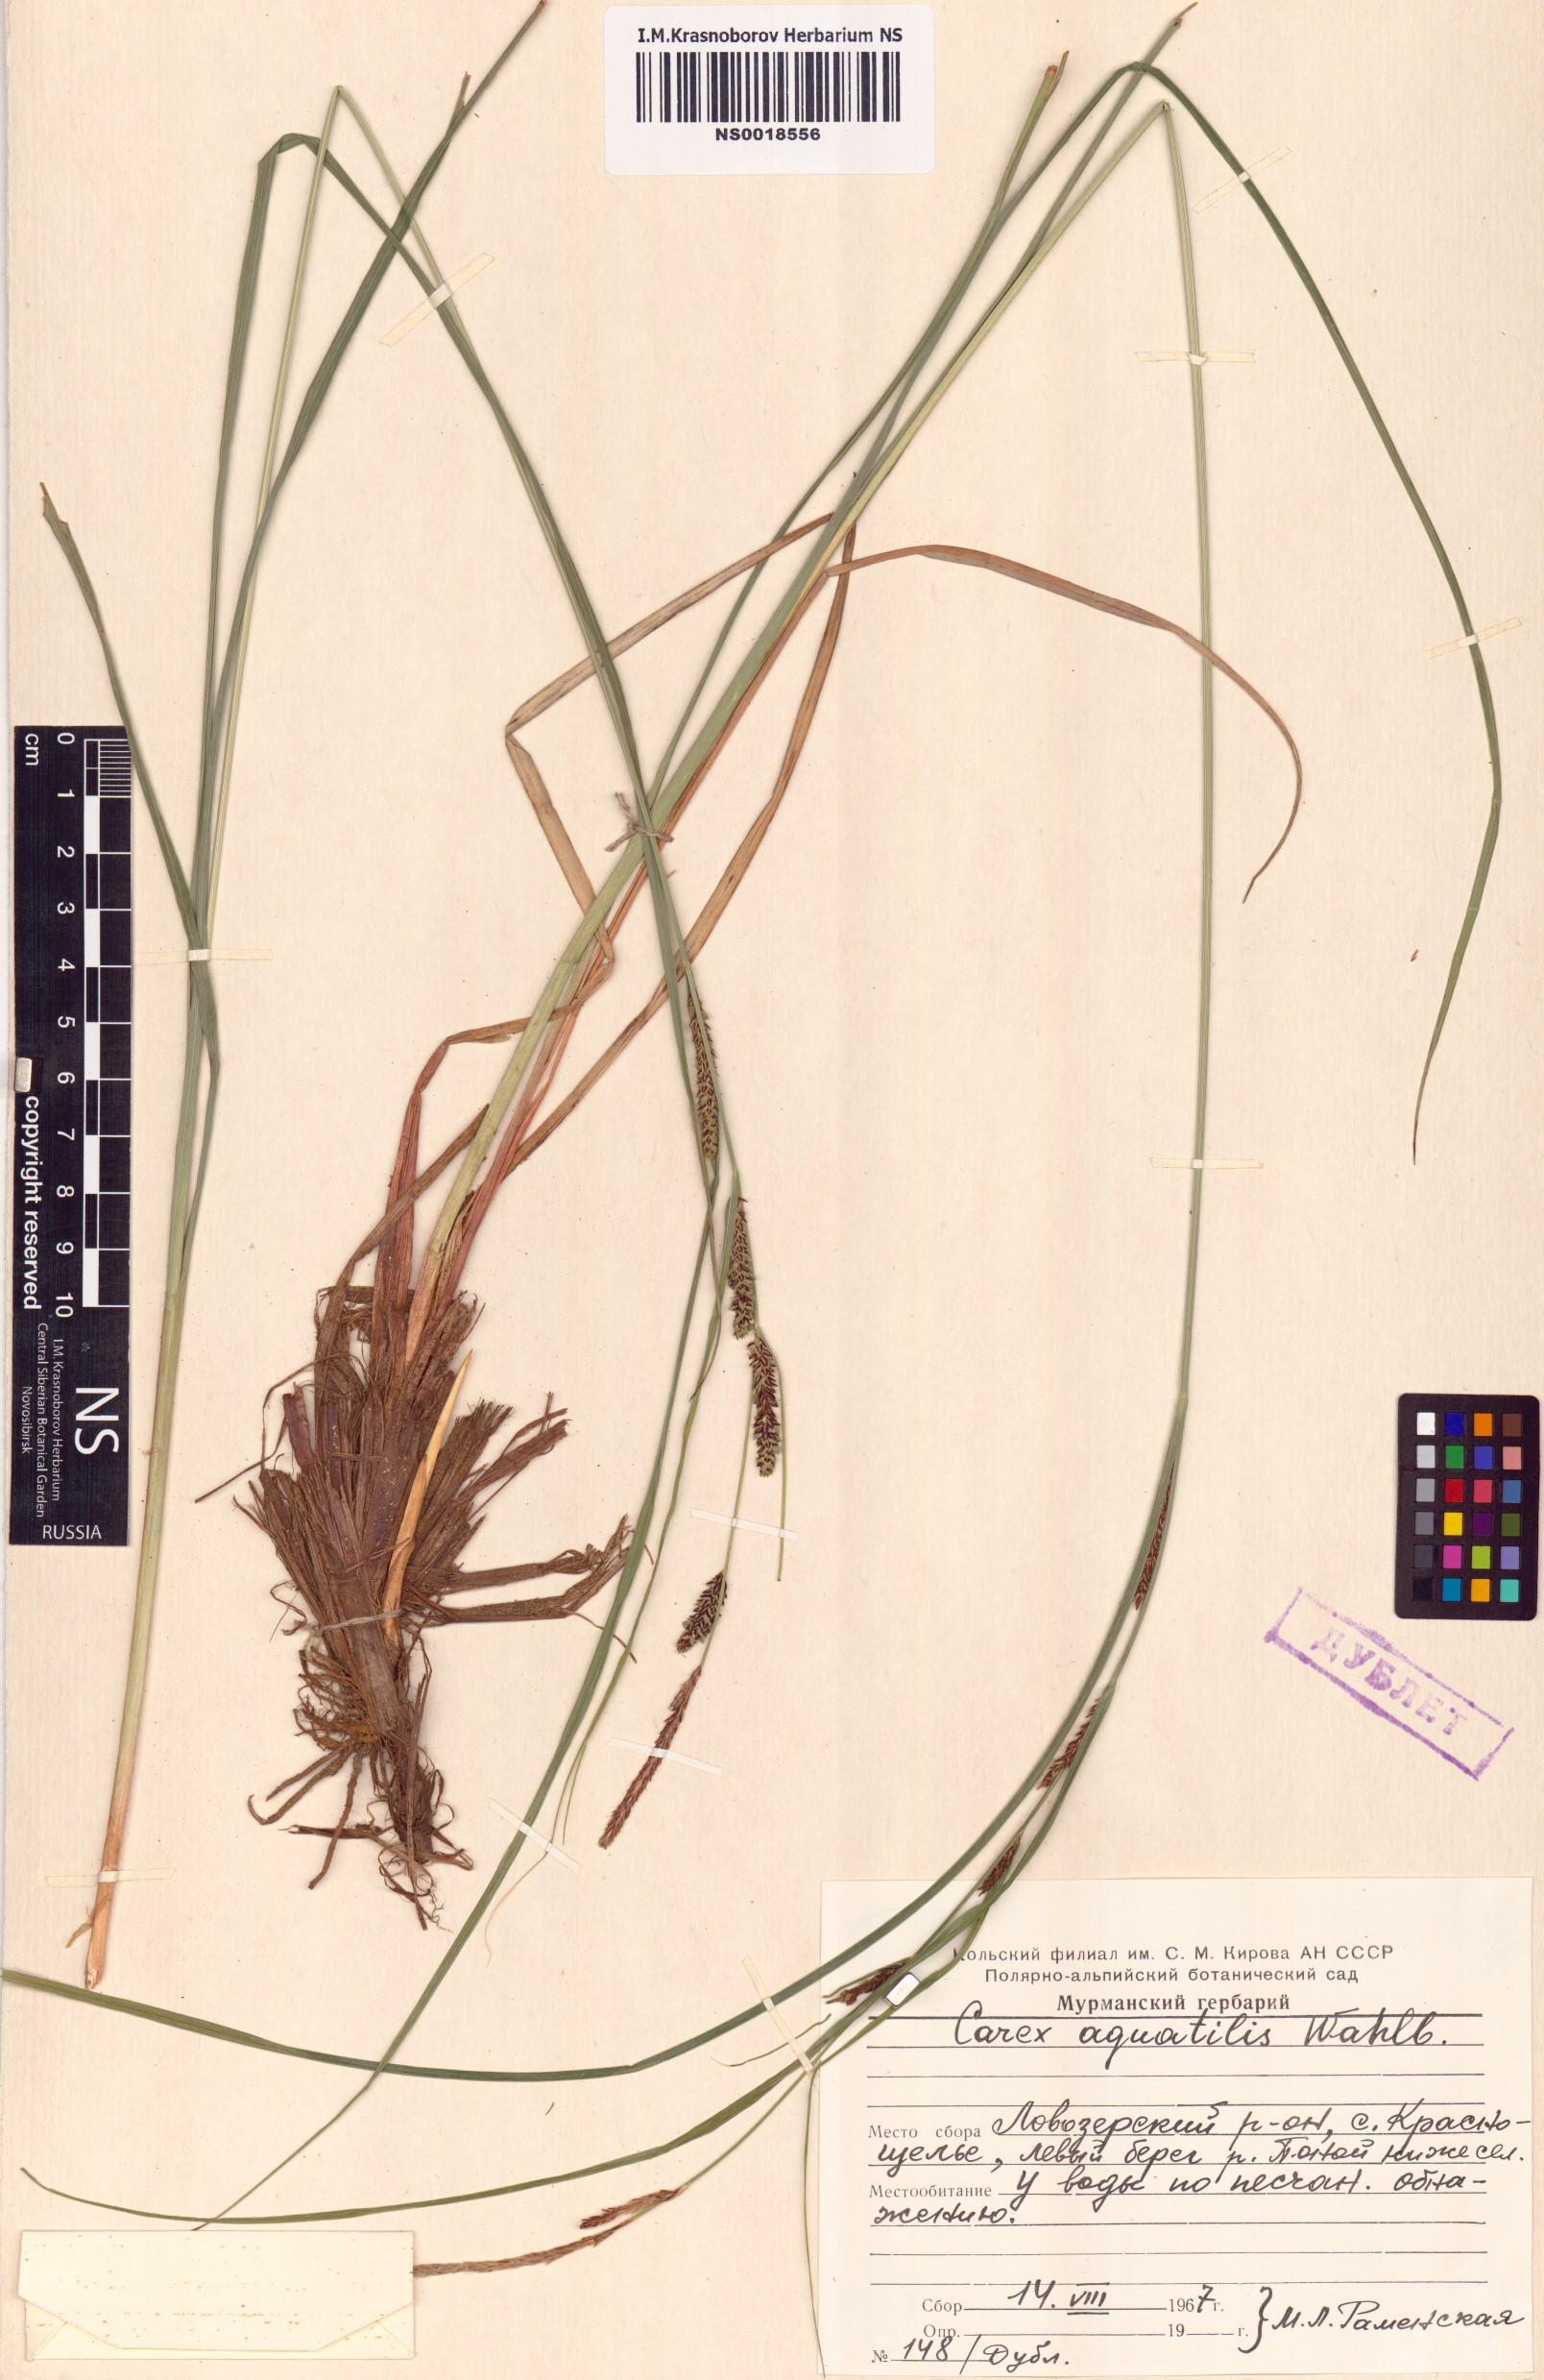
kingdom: Plantae
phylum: Tracheophyta
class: Liliopsida
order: Poales
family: Cyperaceae
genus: Carex
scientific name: Carex aquatilis
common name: Water sedge
